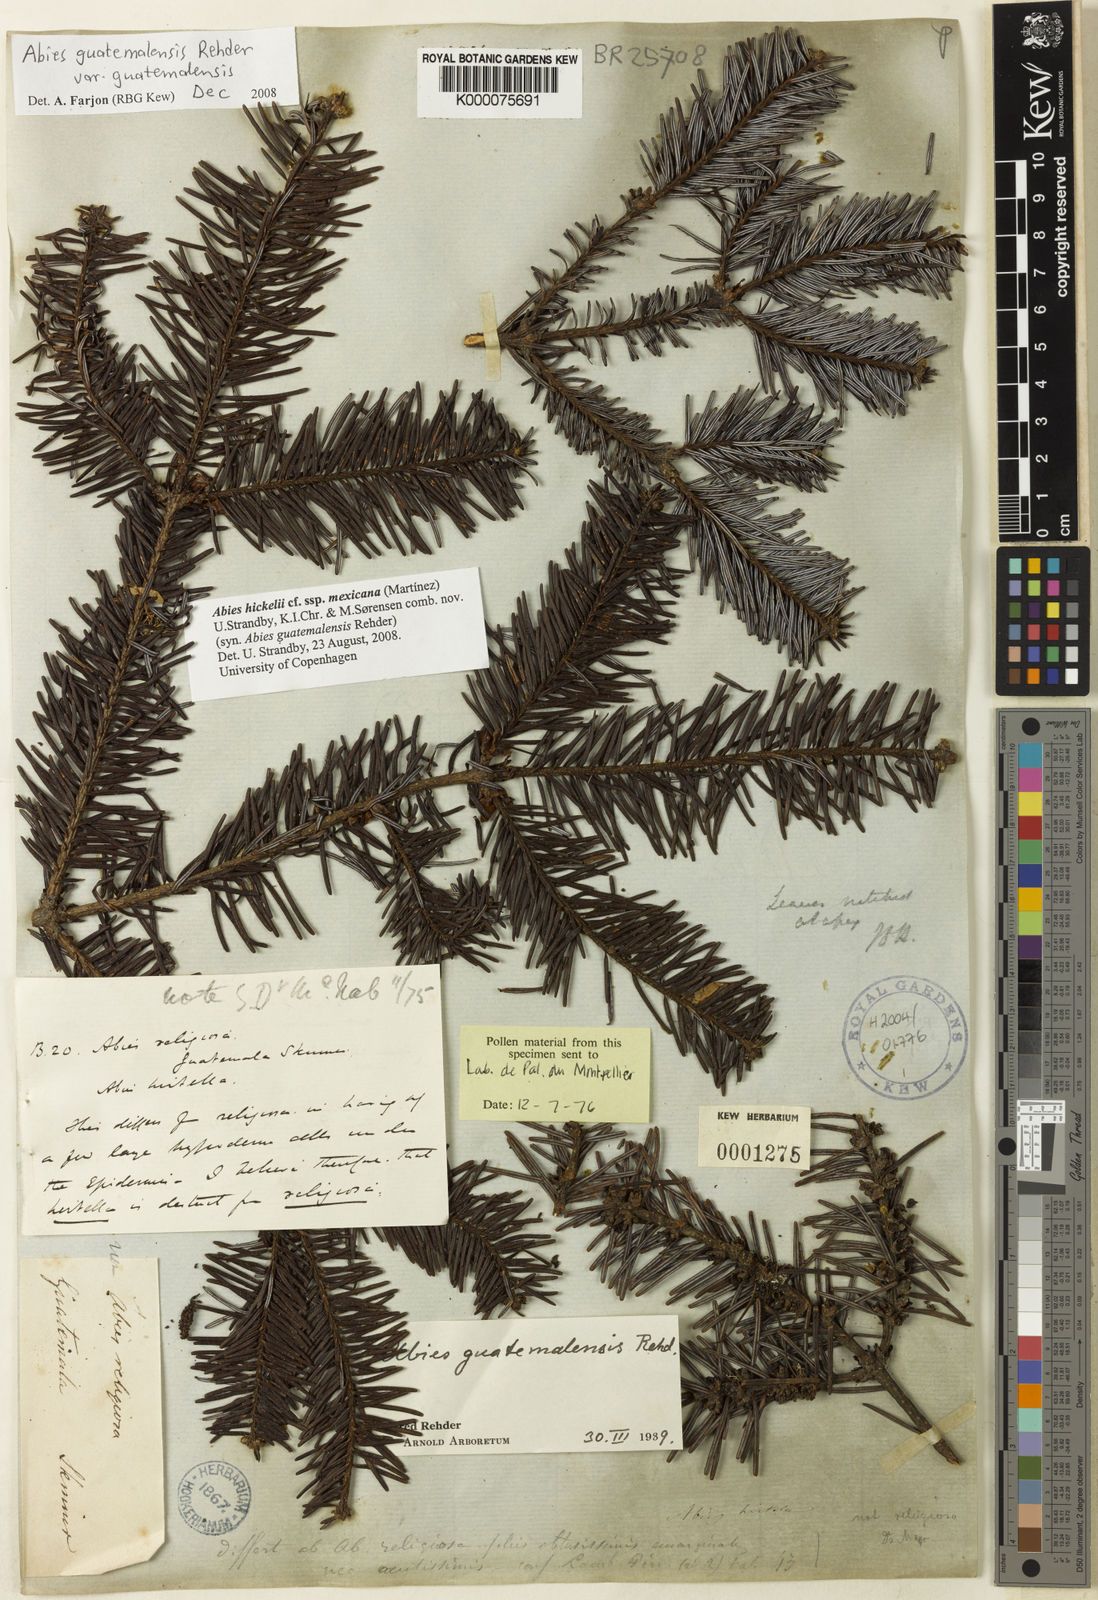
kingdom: Plantae
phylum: Tracheophyta
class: Pinopsida
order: Pinales
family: Pinaceae
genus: Abies
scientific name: Abies guatemalensis
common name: Guatemalan fir
